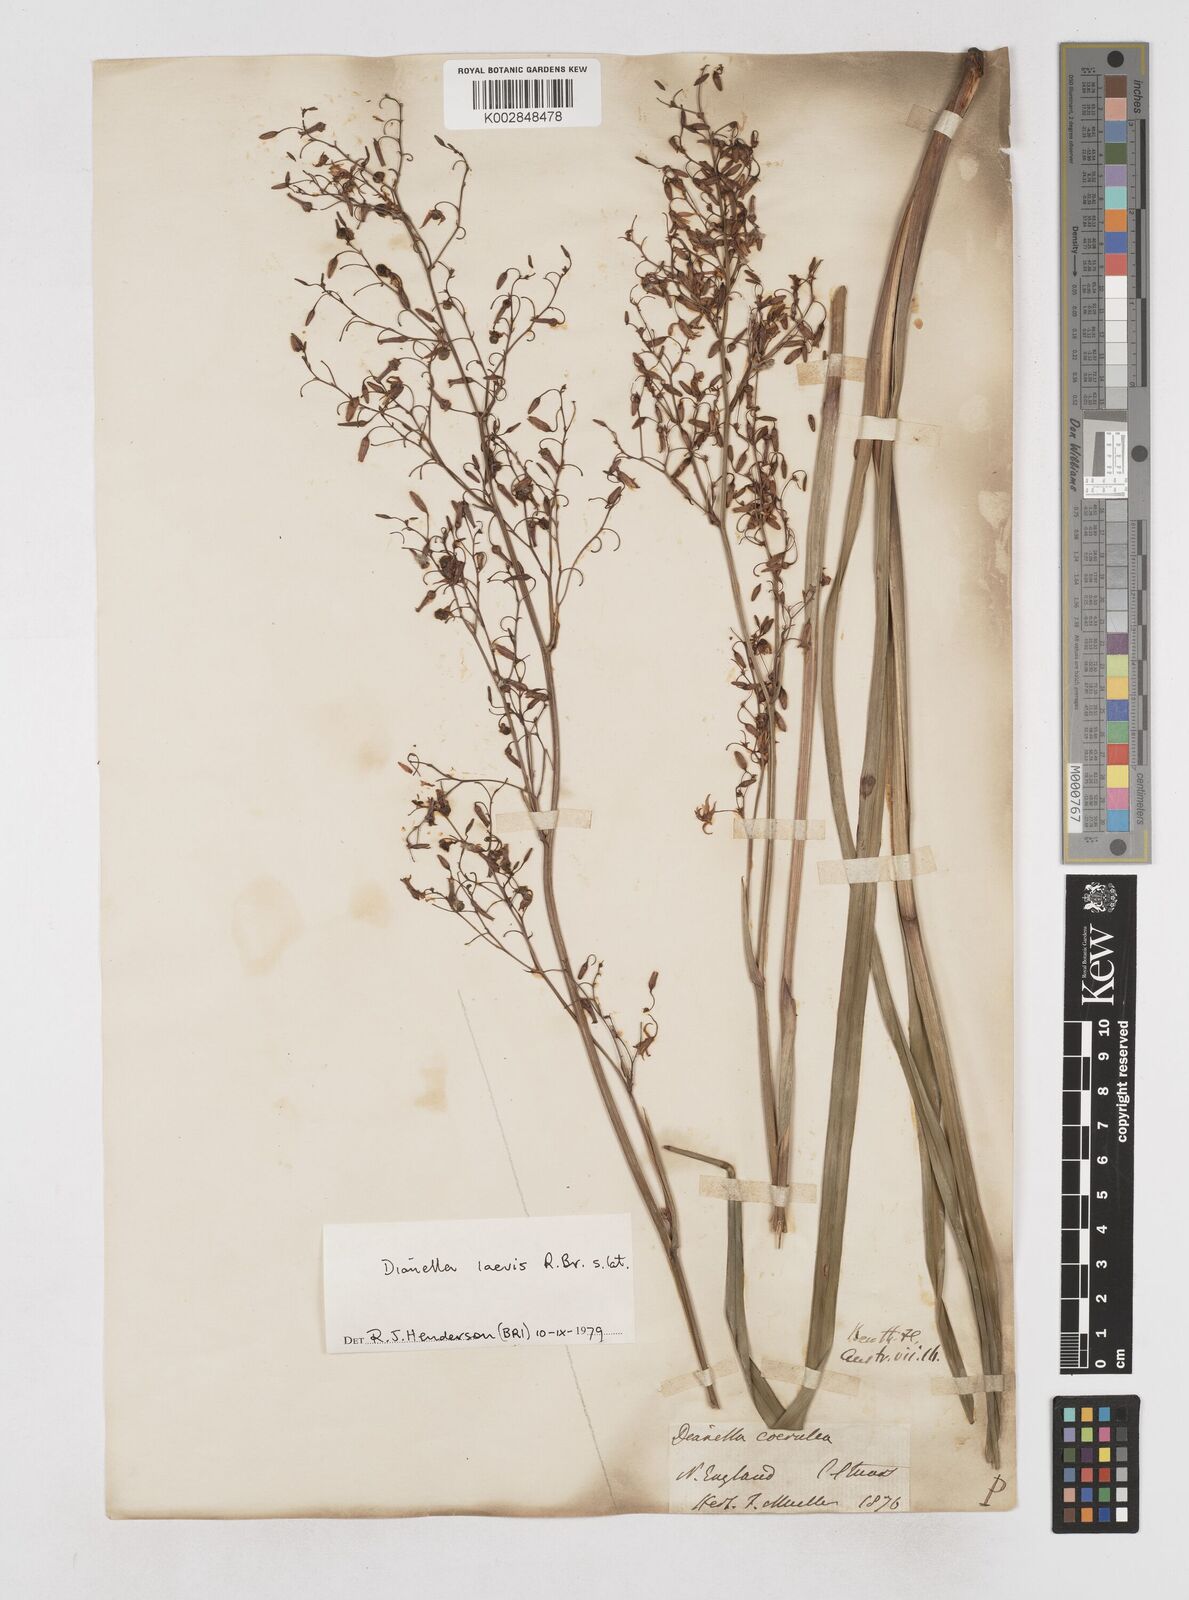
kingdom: Plantae
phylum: Tracheophyta
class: Liliopsida
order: Asparagales
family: Asphodelaceae
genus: Dianella
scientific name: Dianella longifolia
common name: Blue flax-lily
